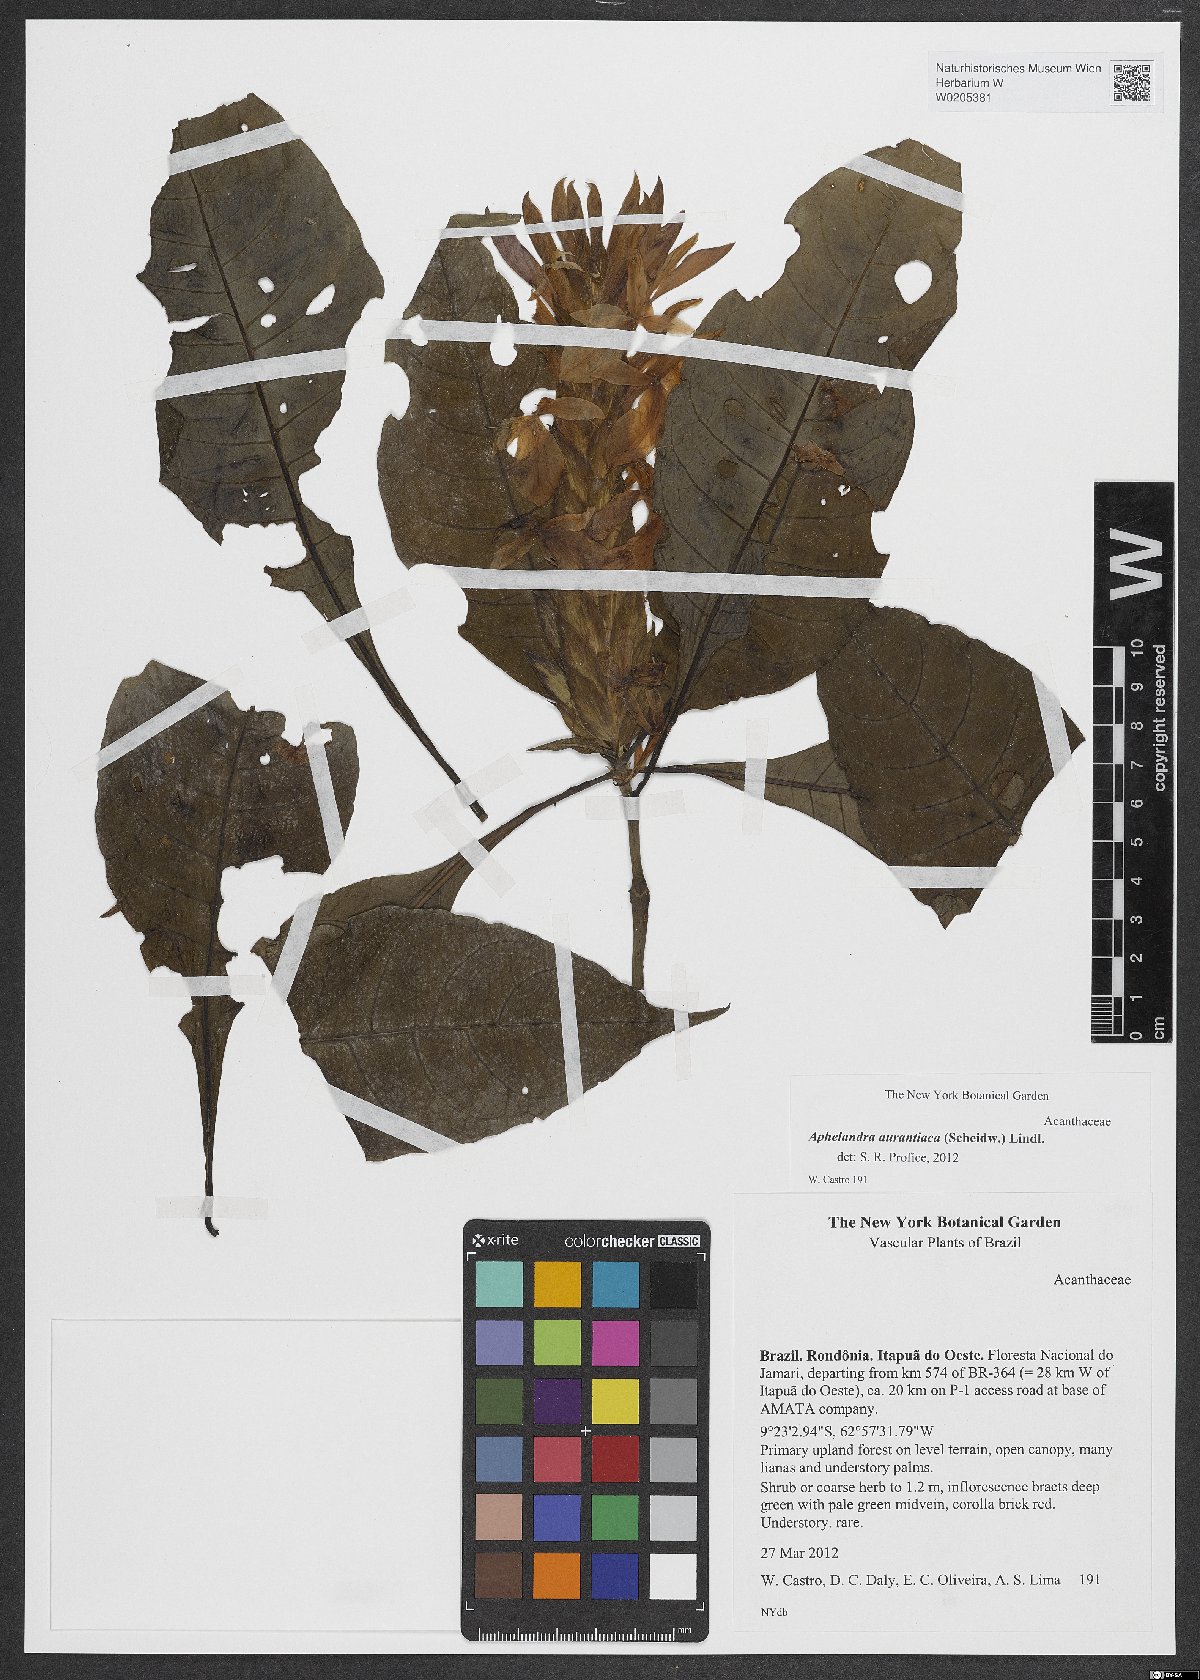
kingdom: Plantae
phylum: Tracheophyta
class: Magnoliopsida
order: Lamiales
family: Acanthaceae
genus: Aphelandra
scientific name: Aphelandra aurantiaca
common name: Fiery spike
